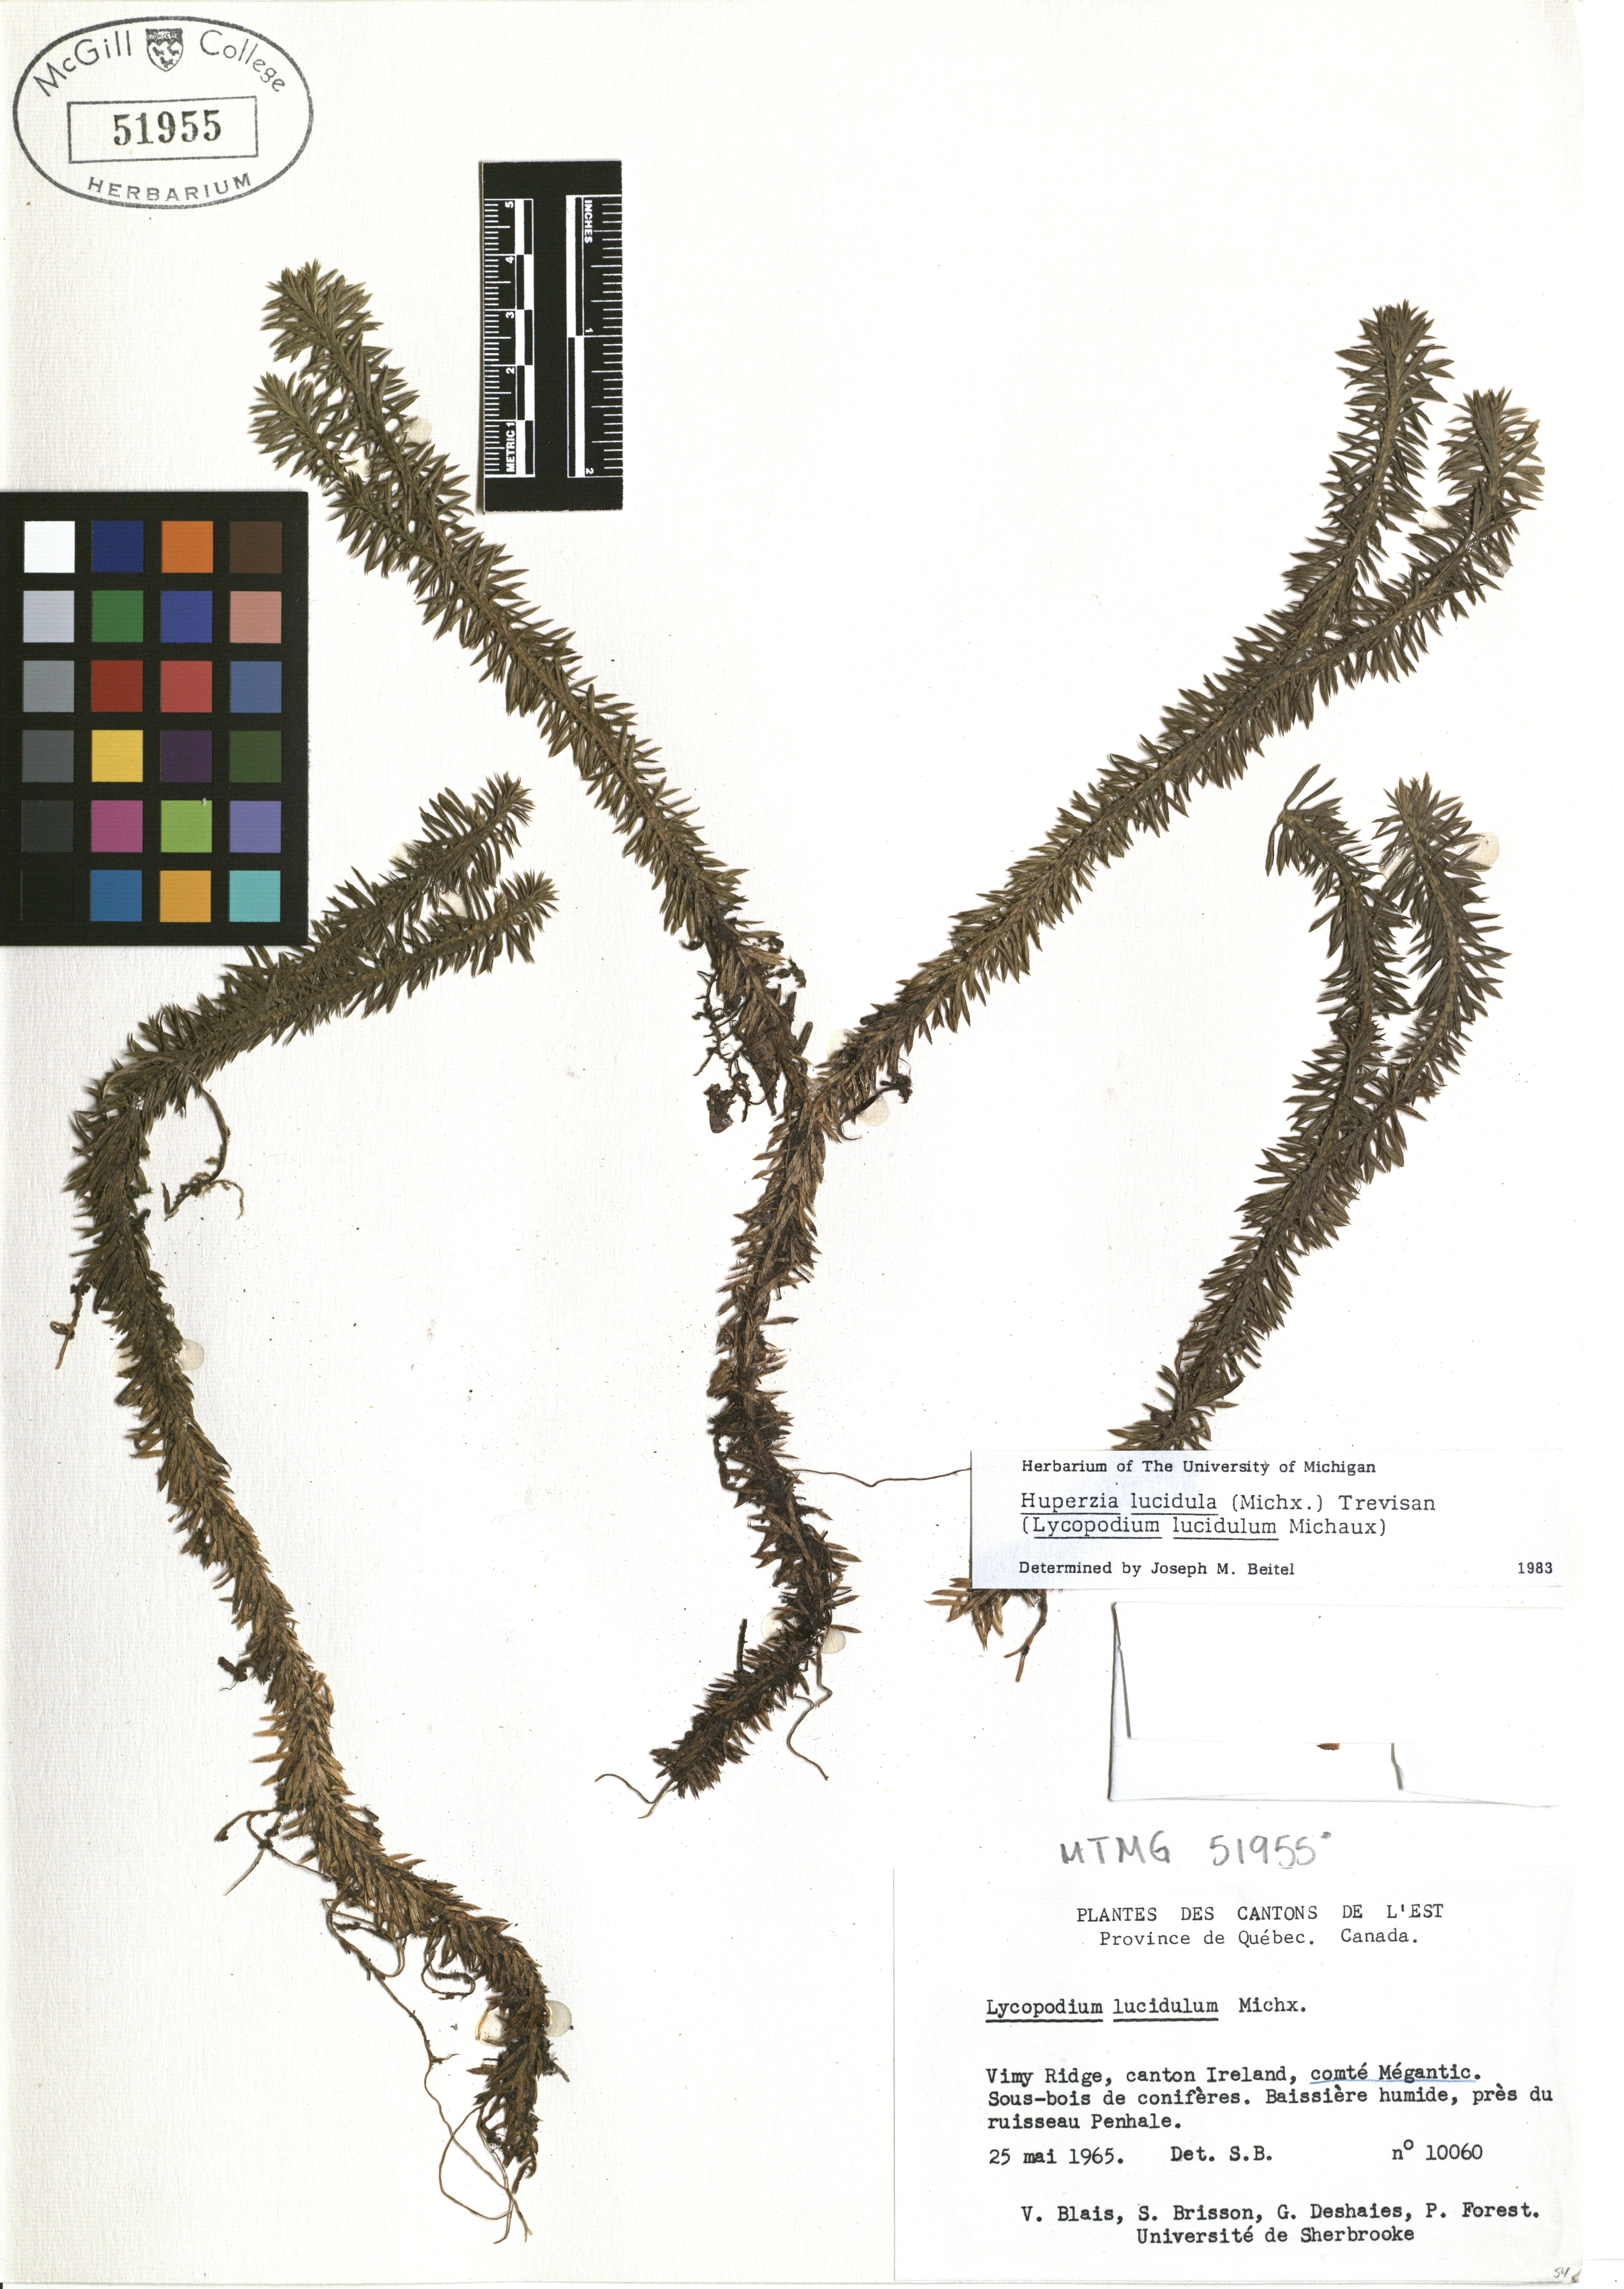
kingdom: Plantae
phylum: Tracheophyta
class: Lycopodiopsida
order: Lycopodiales
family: Lycopodiaceae
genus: Huperzia
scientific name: Huperzia lucidula
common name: Shining clubmoss
